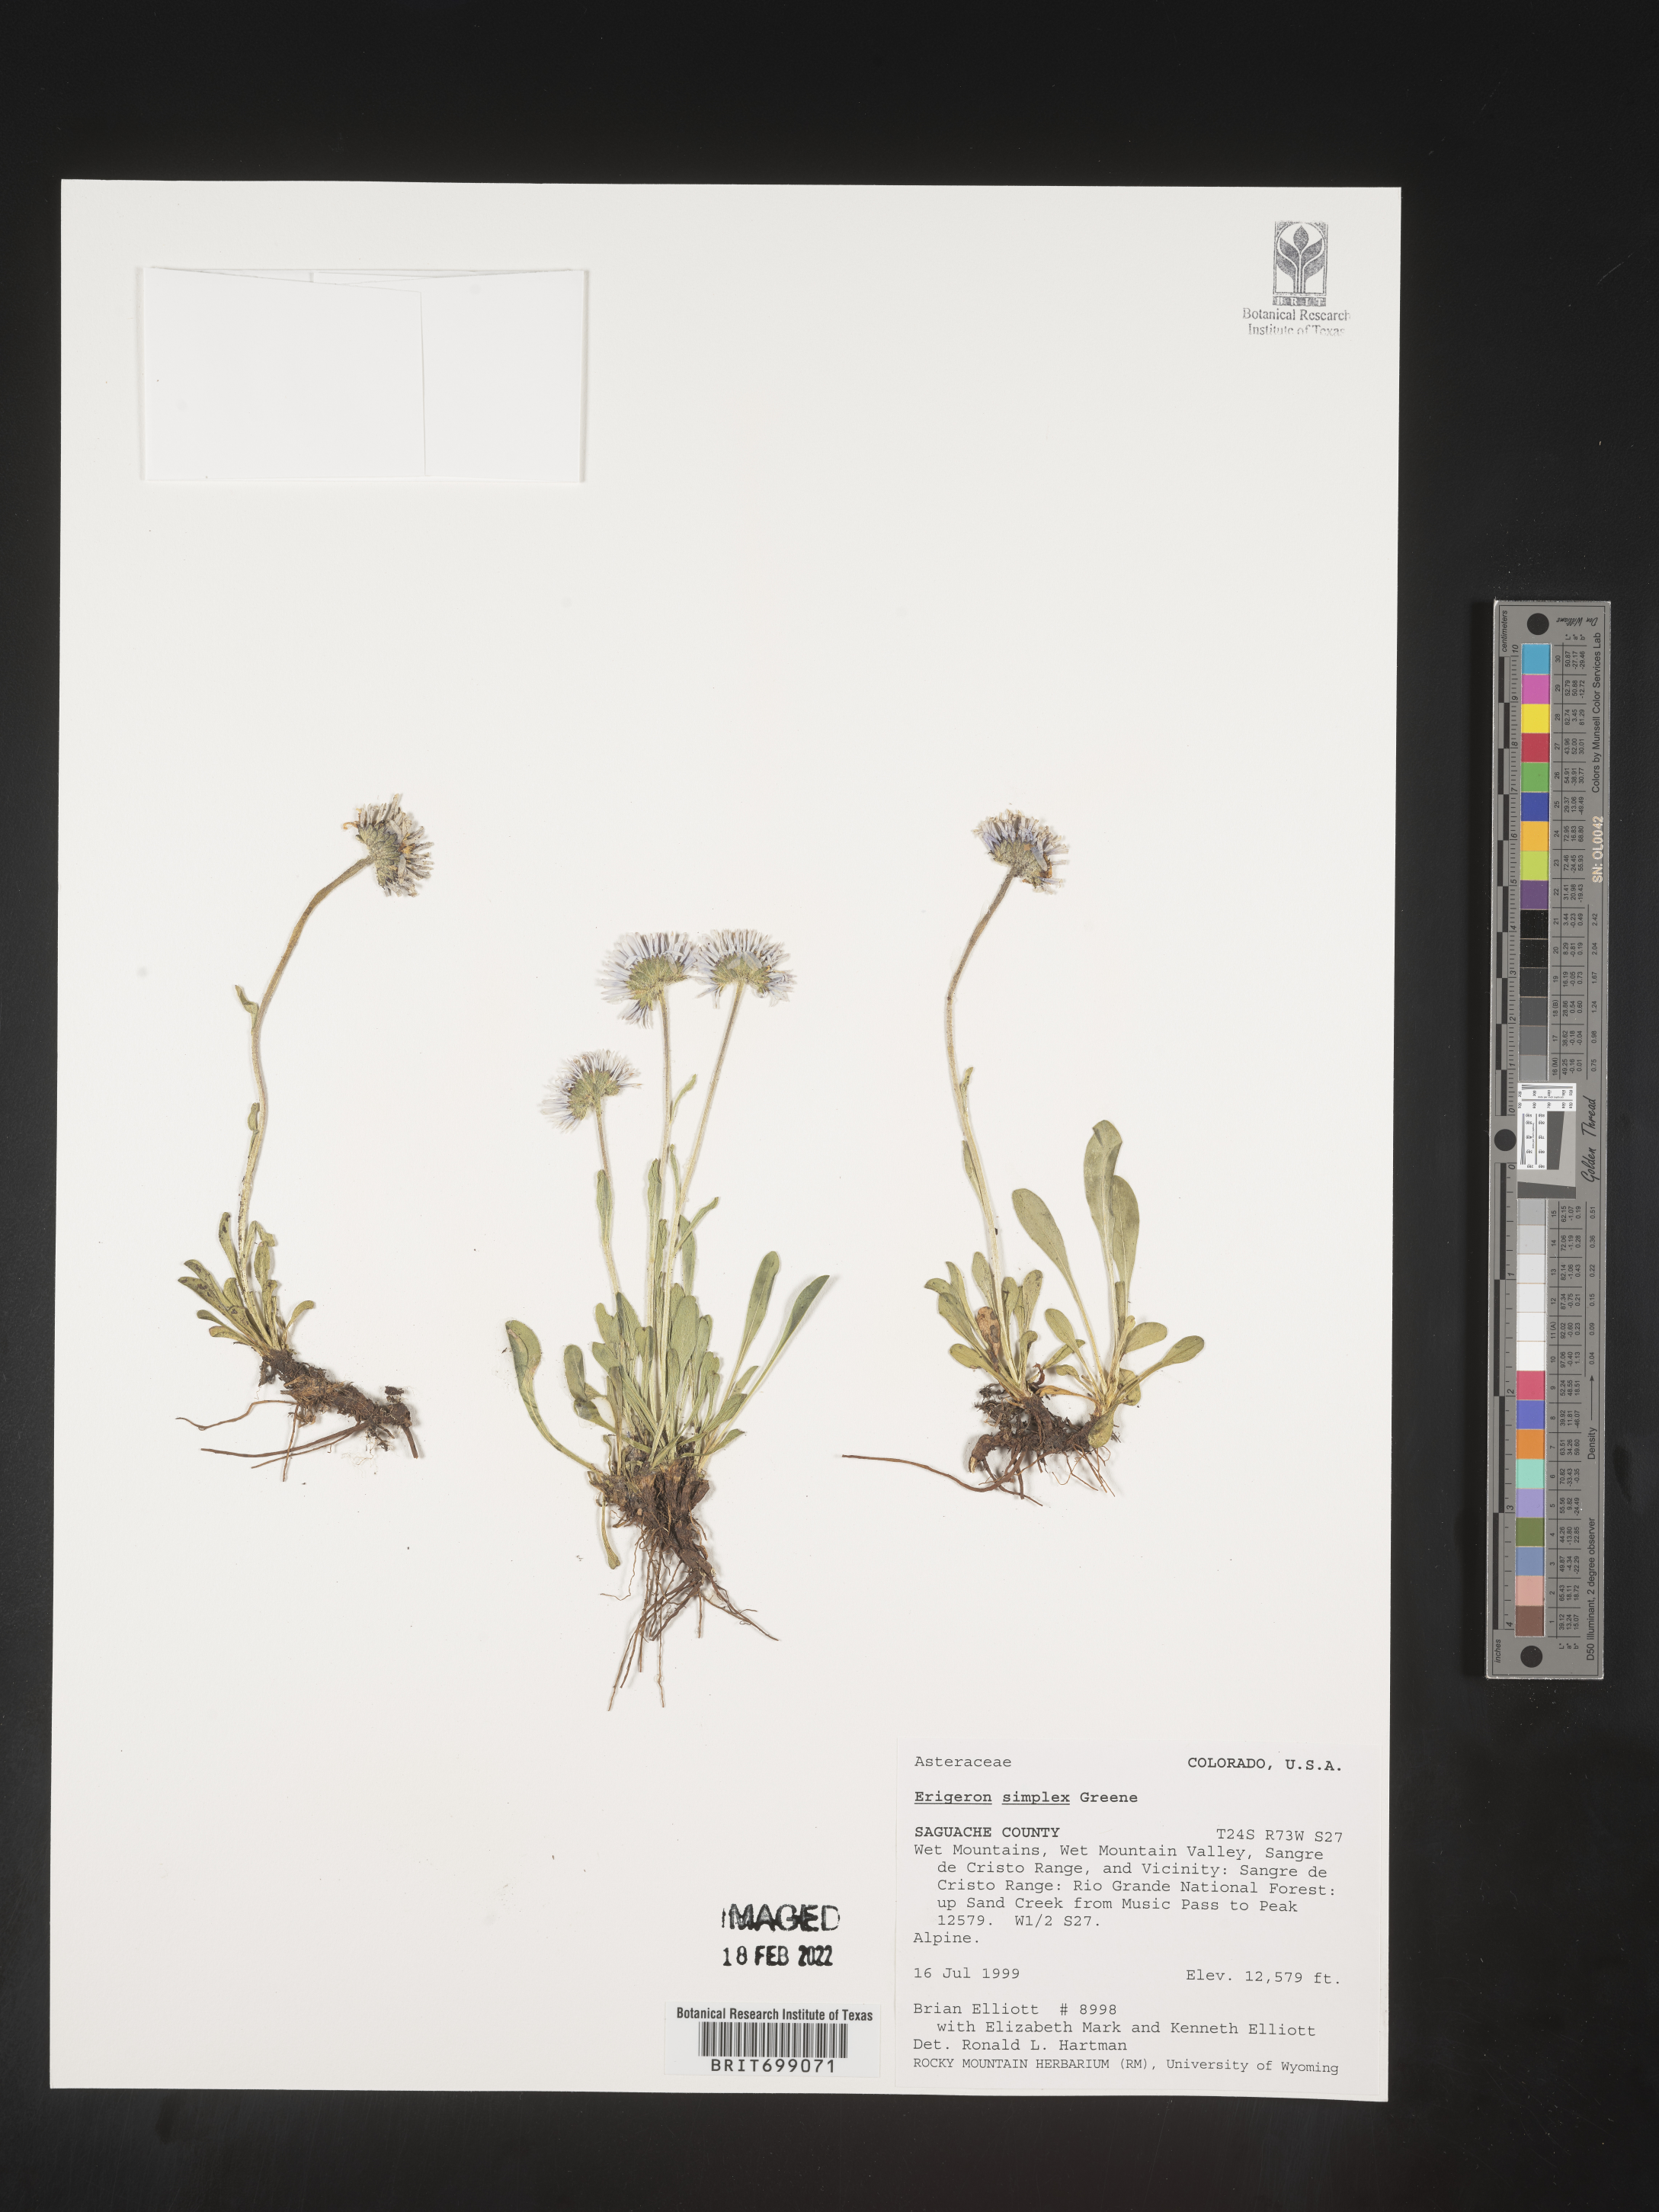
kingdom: Plantae
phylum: Tracheophyta
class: Magnoliopsida
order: Asterales
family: Asteraceae
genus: Erigeron
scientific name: Erigeron caucasicus
